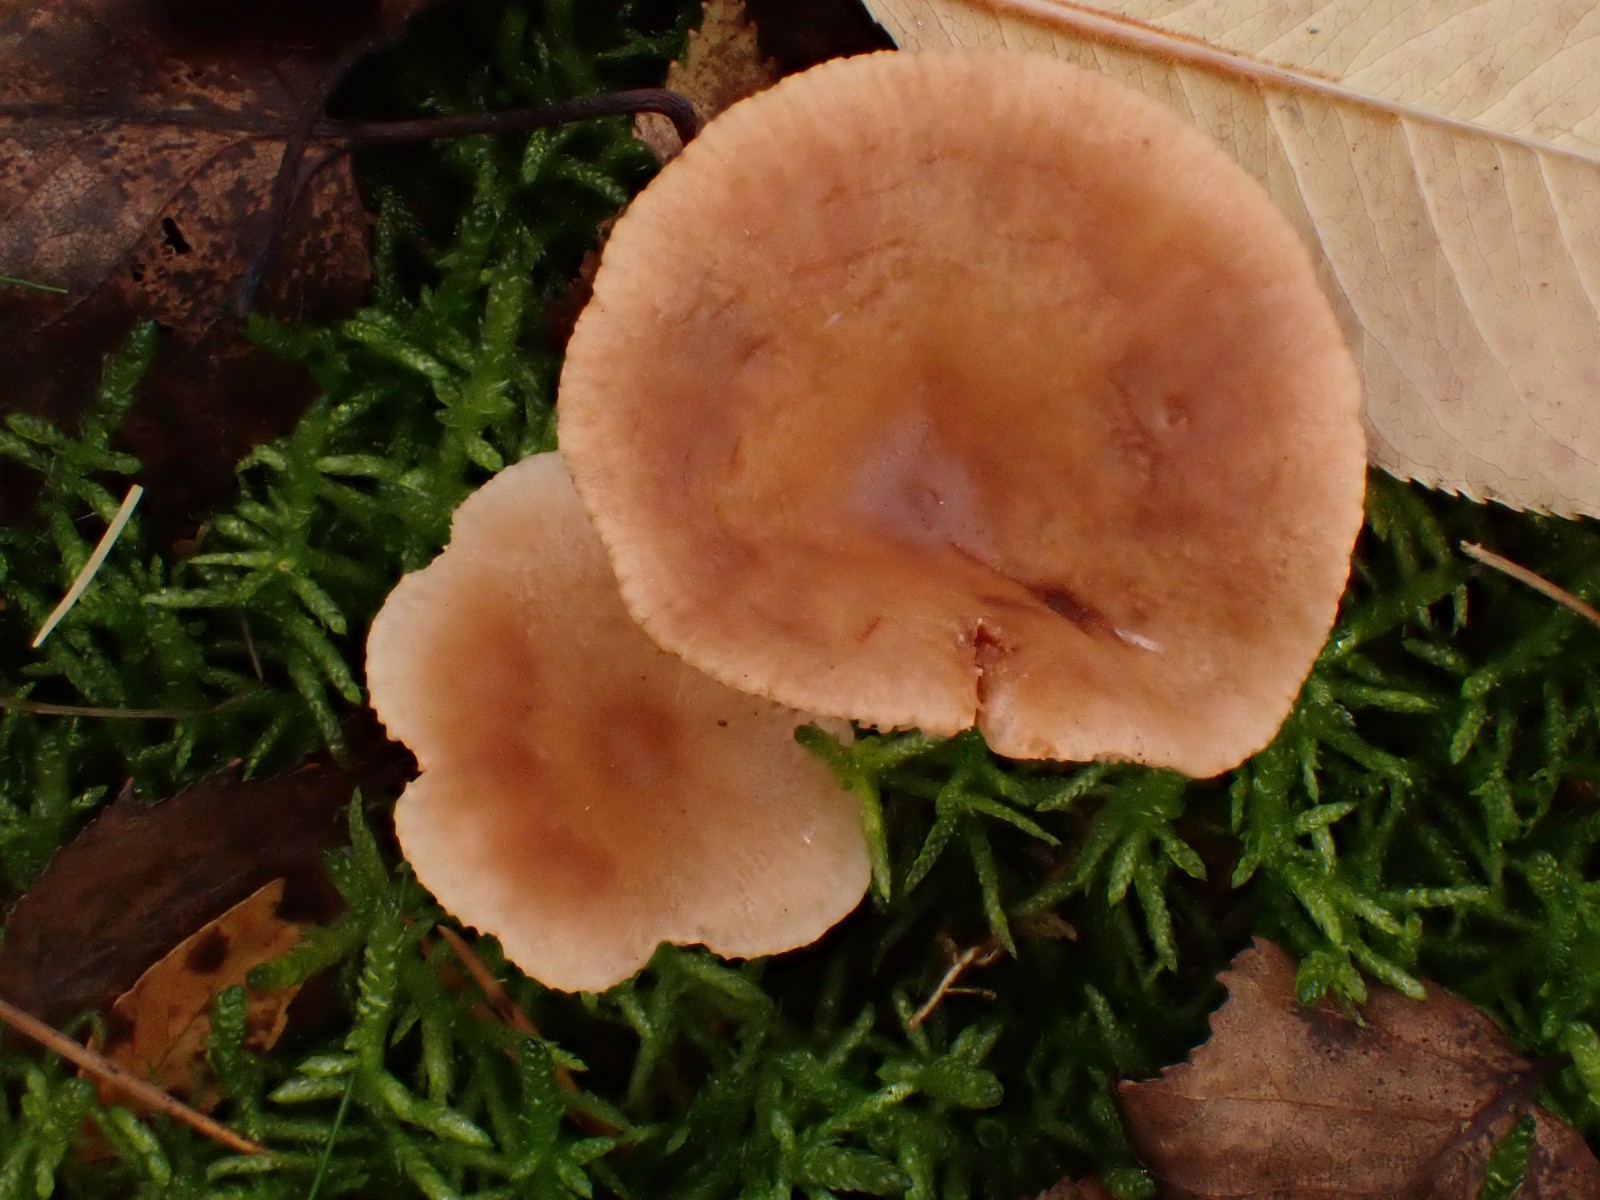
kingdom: Fungi
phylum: Basidiomycota
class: Agaricomycetes
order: Russulales
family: Russulaceae
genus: Lactarius
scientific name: Lactarius
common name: mælkehat
